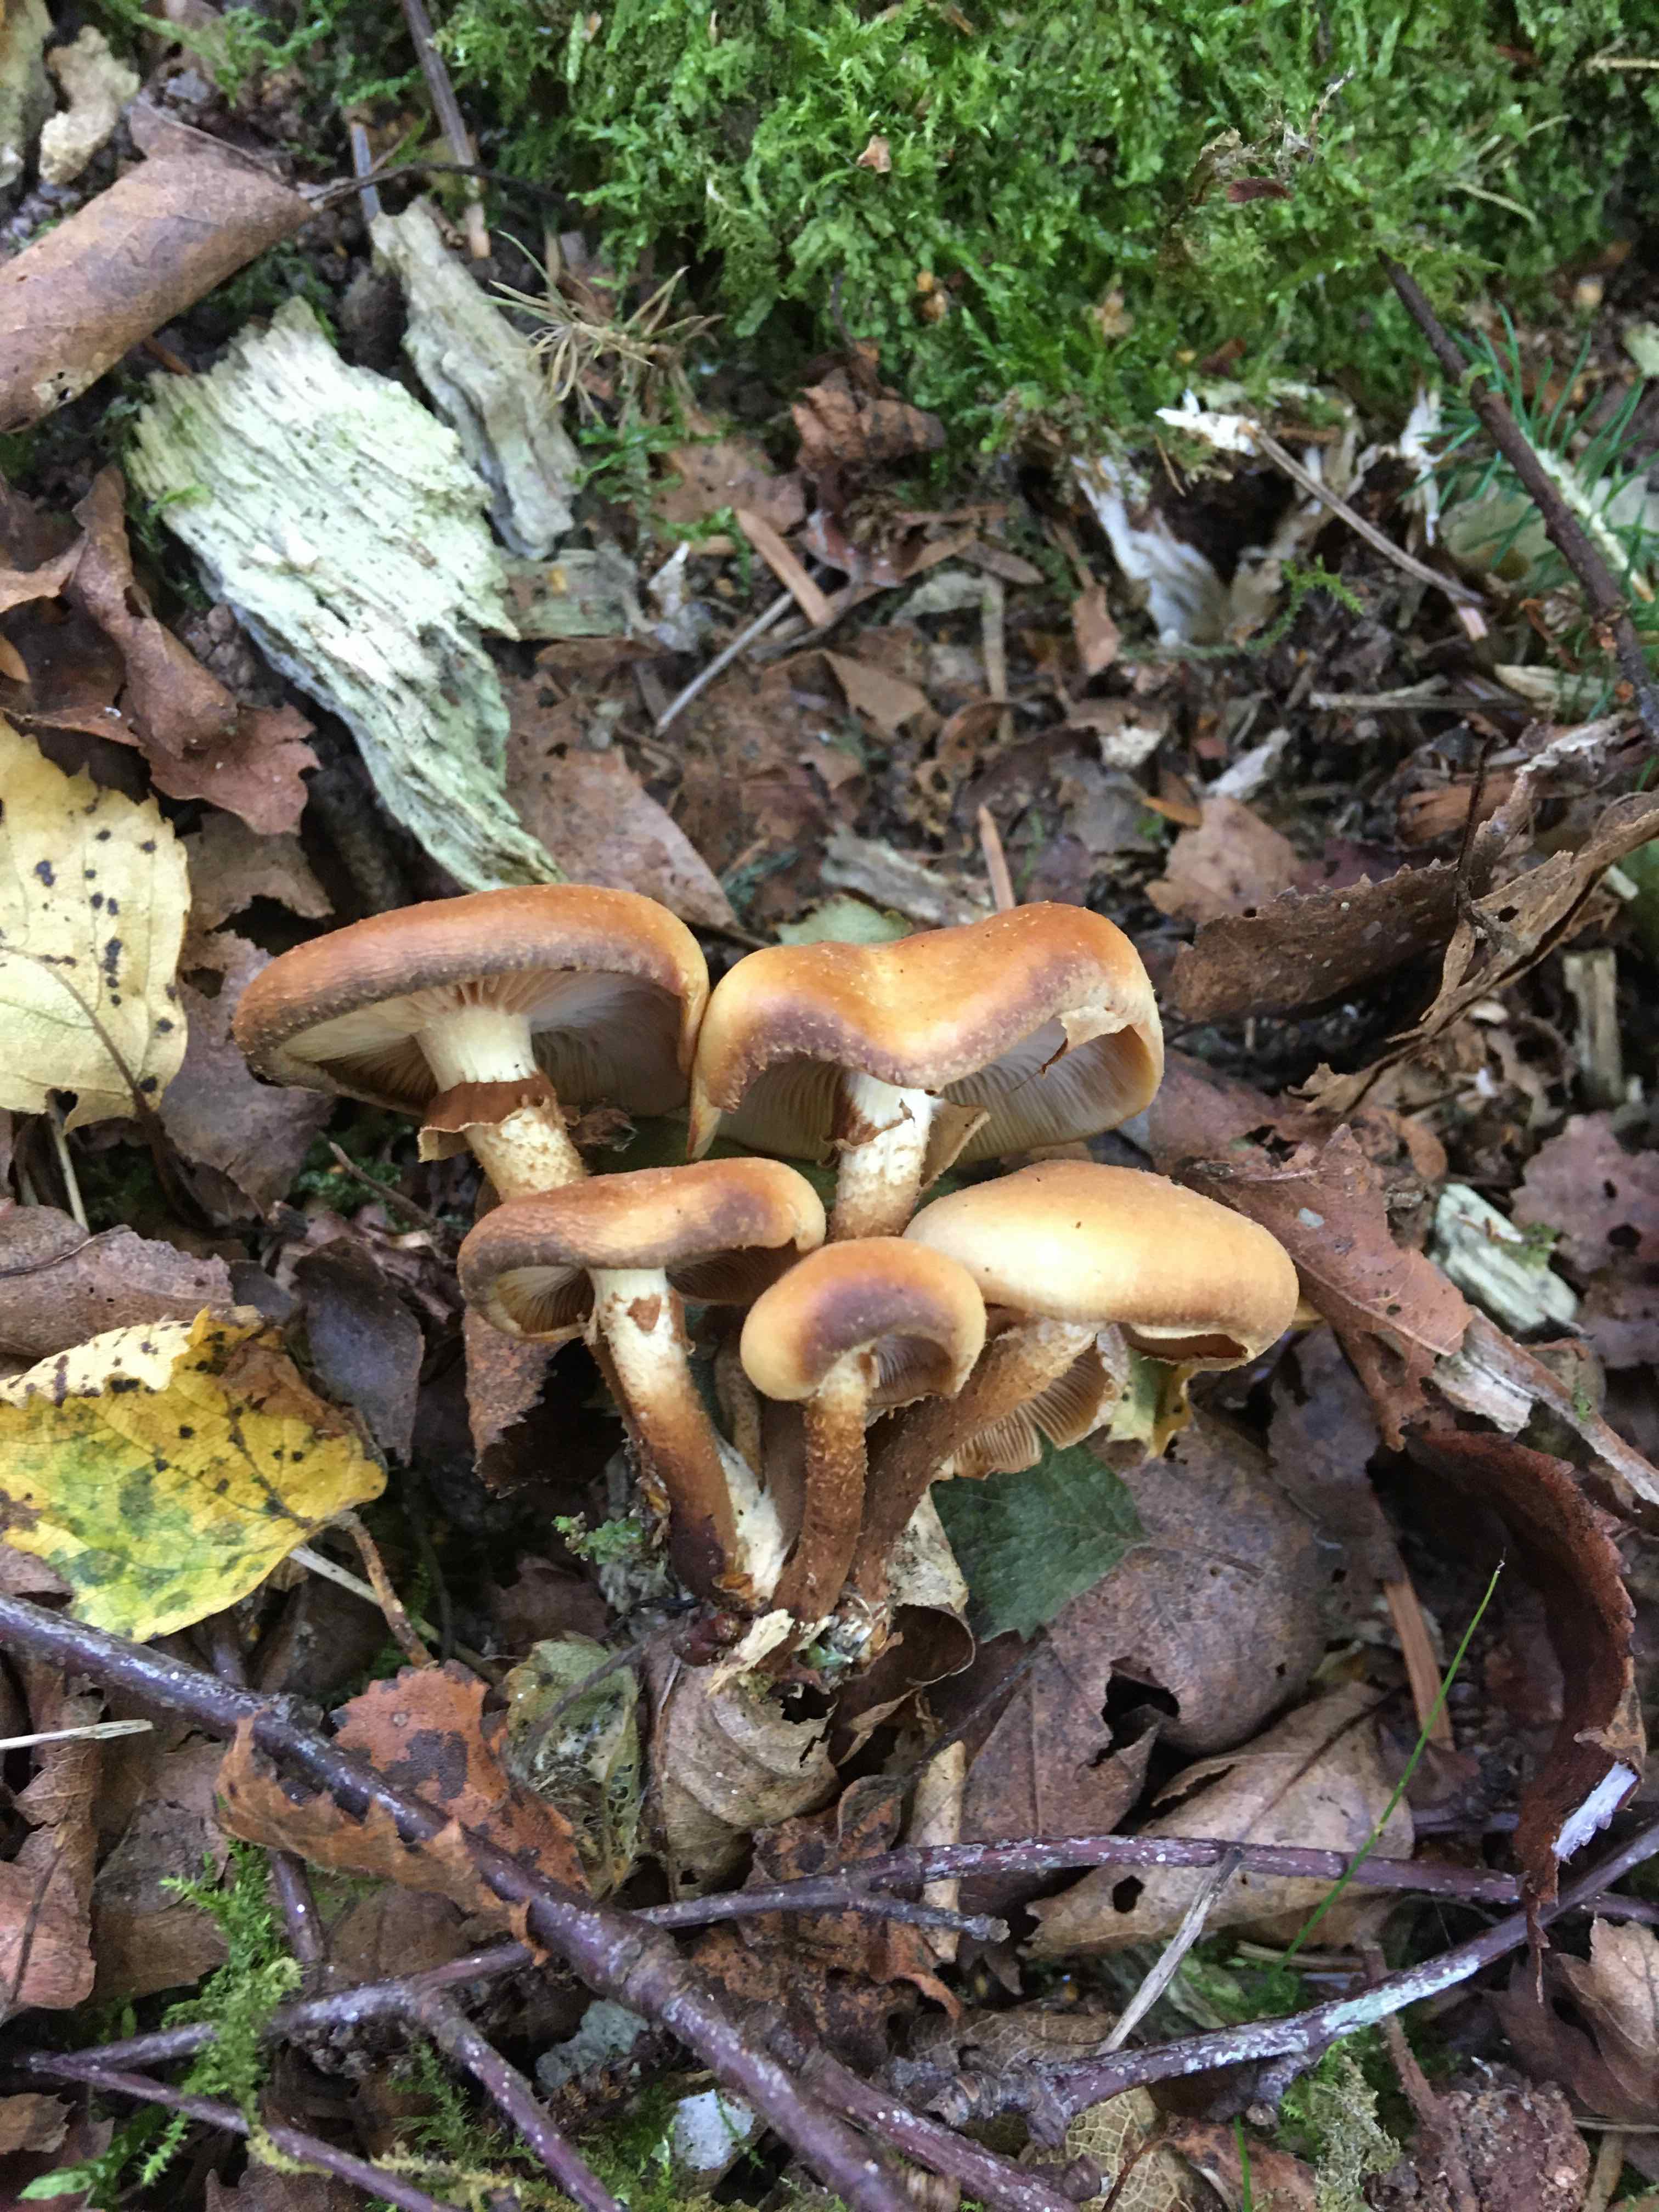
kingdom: Fungi
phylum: Basidiomycota
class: Agaricomycetes
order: Agaricales
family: Strophariaceae
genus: Kuehneromyces
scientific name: Kuehneromyces mutabilis
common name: foranderlig skælhat
